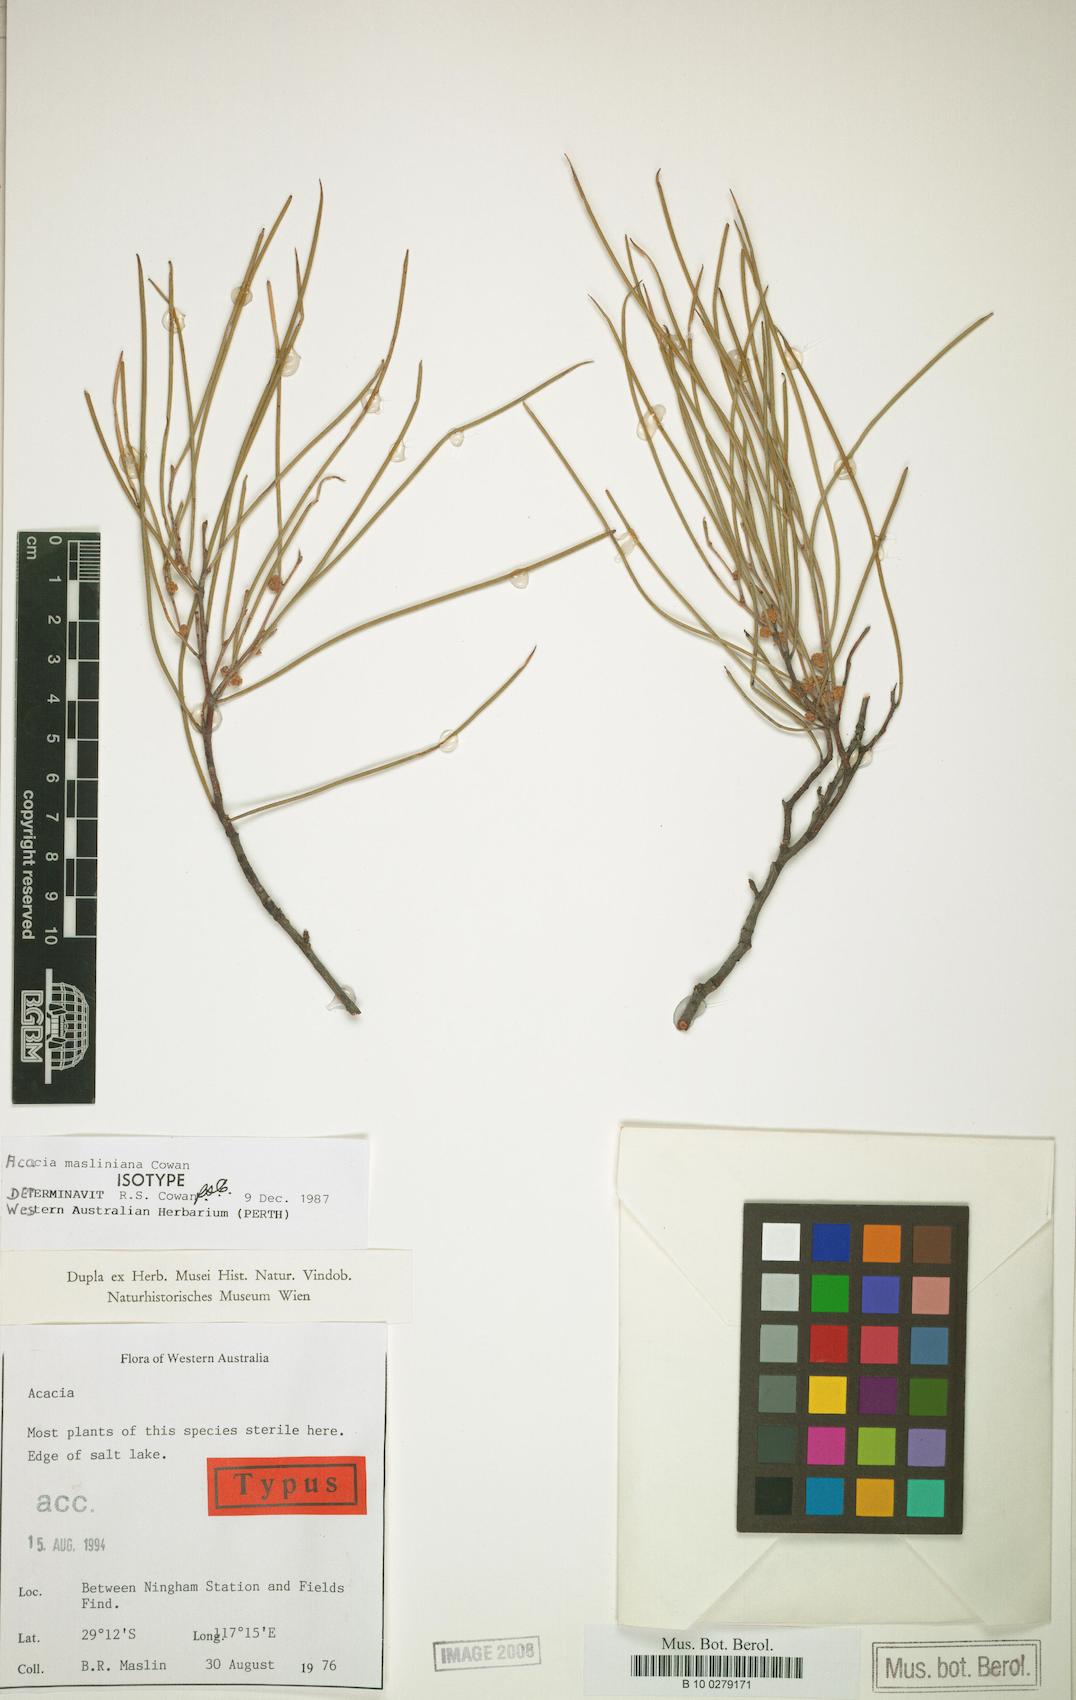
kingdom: Plantae
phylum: Tracheophyta
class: Magnoliopsida
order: Fabales
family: Fabaceae
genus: Acacia
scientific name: Acacia masliniana
